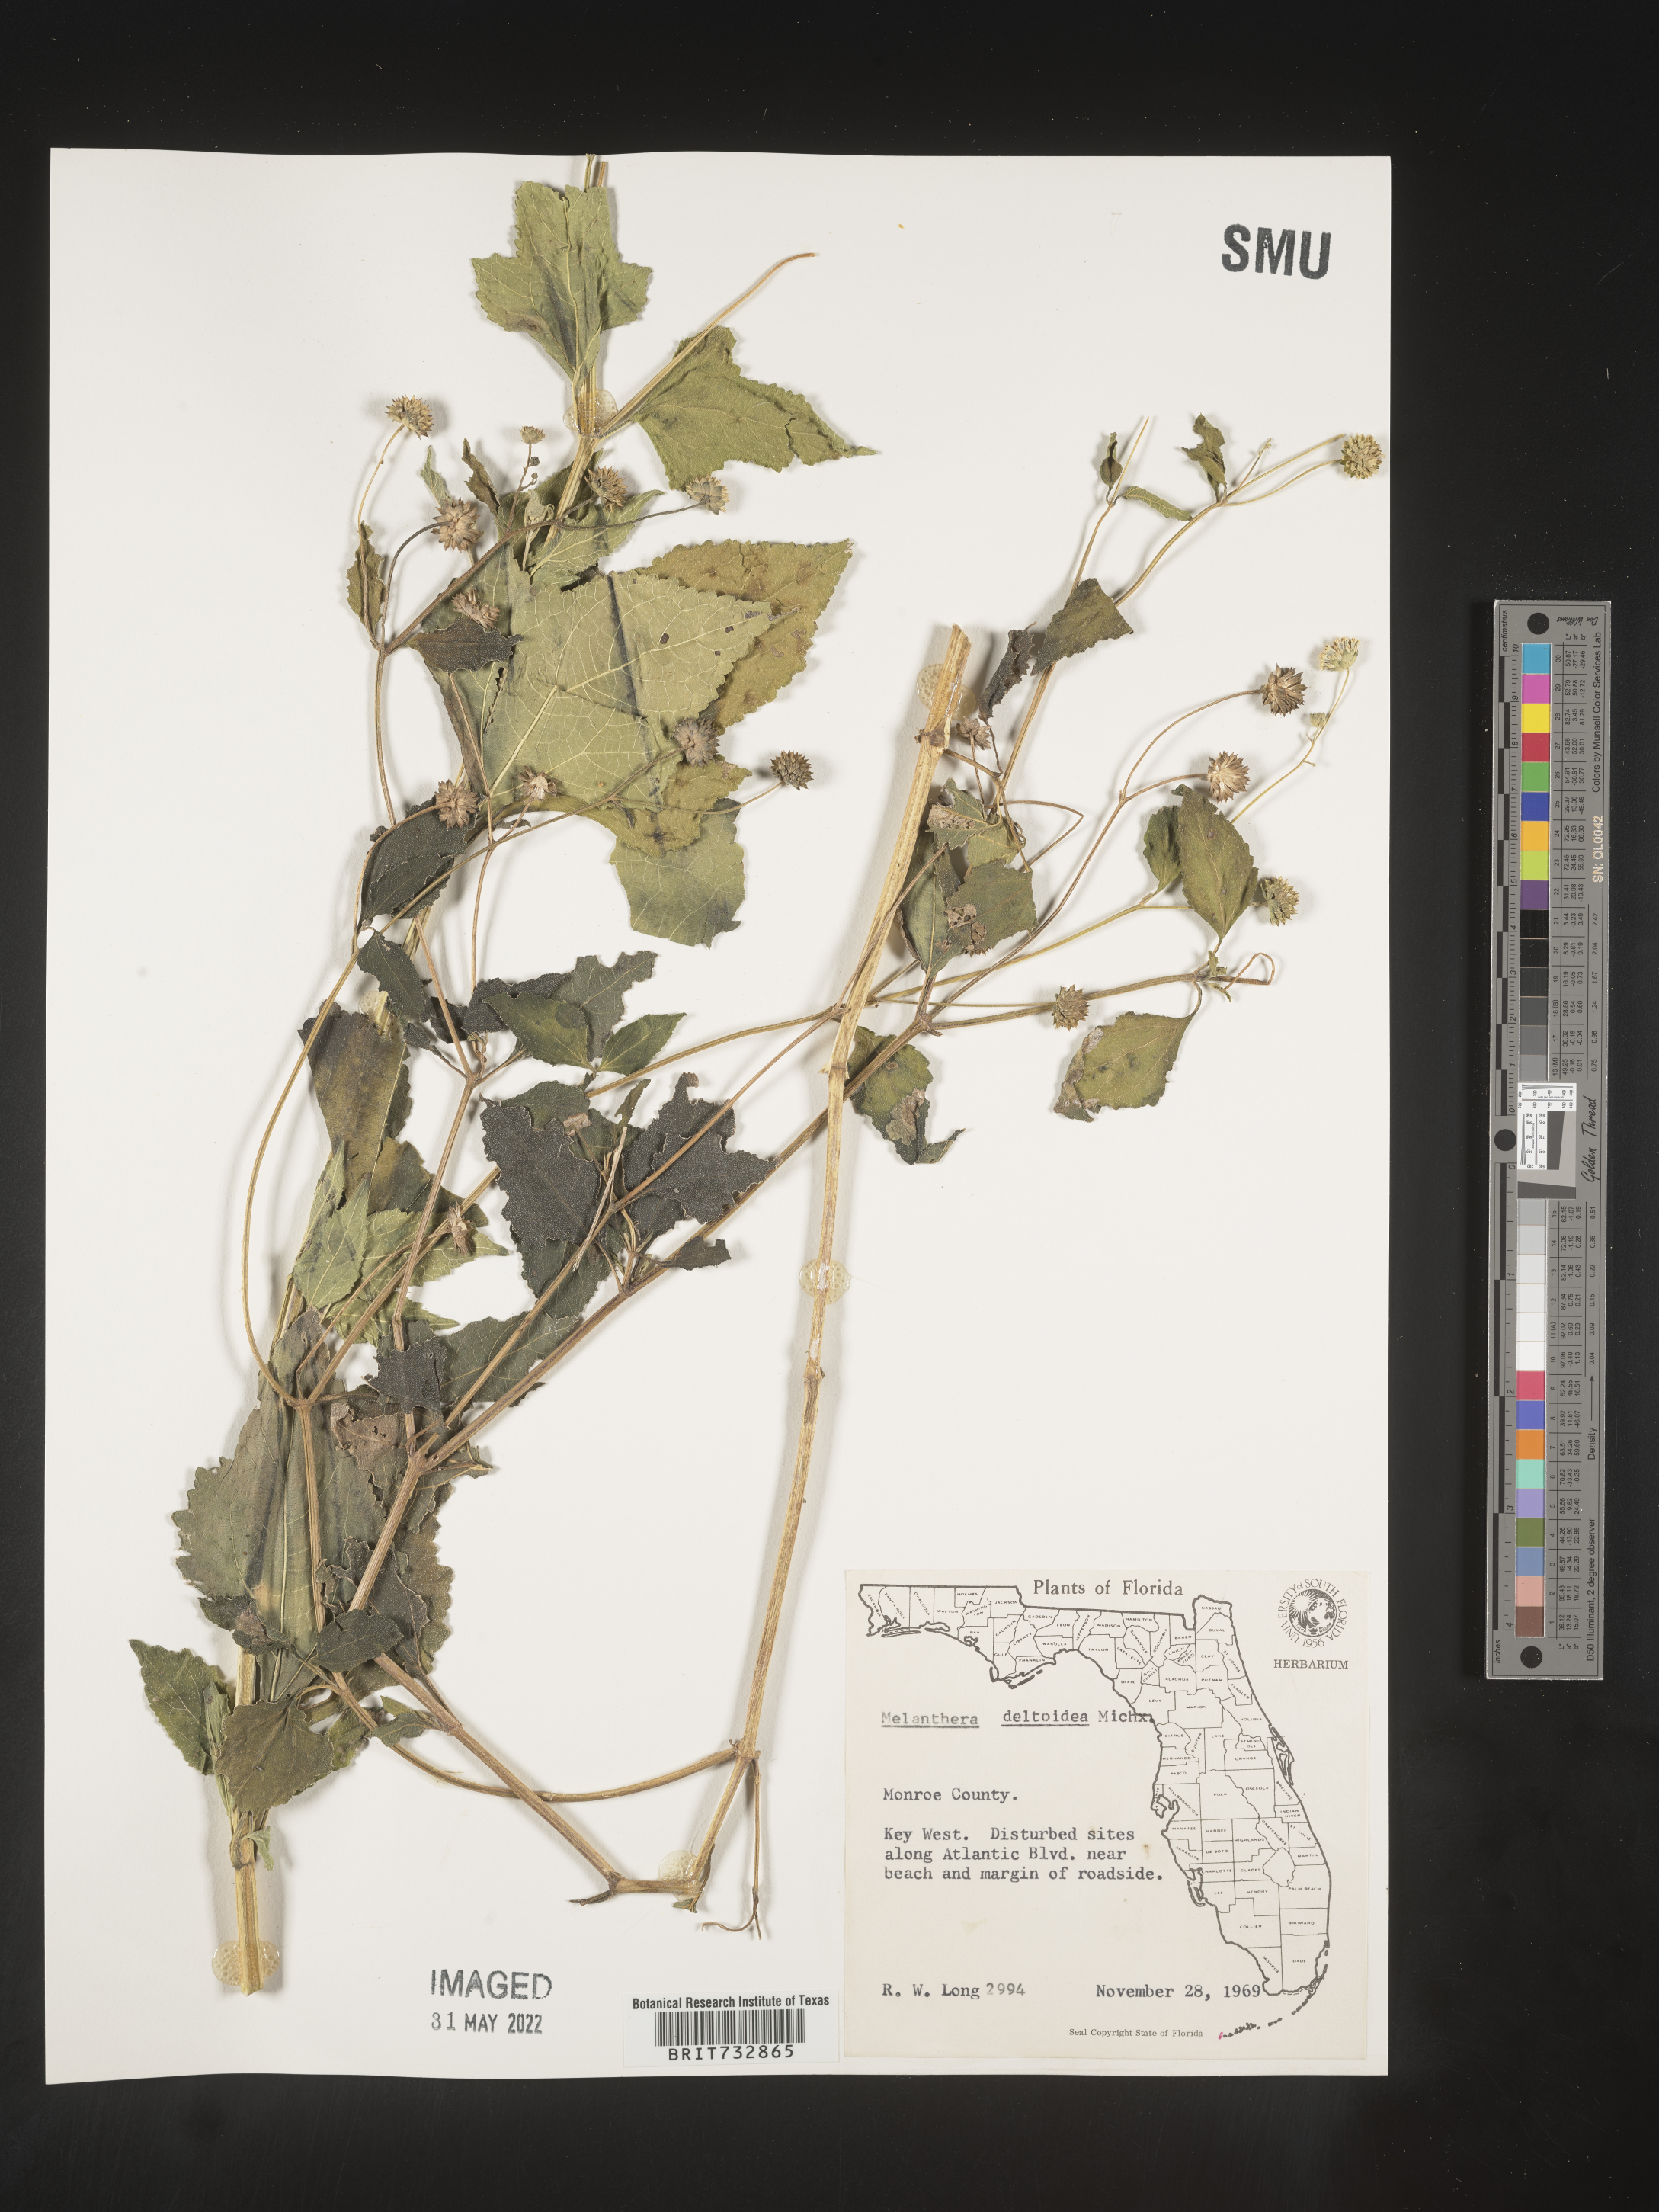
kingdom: Plantae
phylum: Tracheophyta
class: Magnoliopsida
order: Asterales
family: Asteraceae
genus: Melanthera
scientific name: Melanthera nivea
